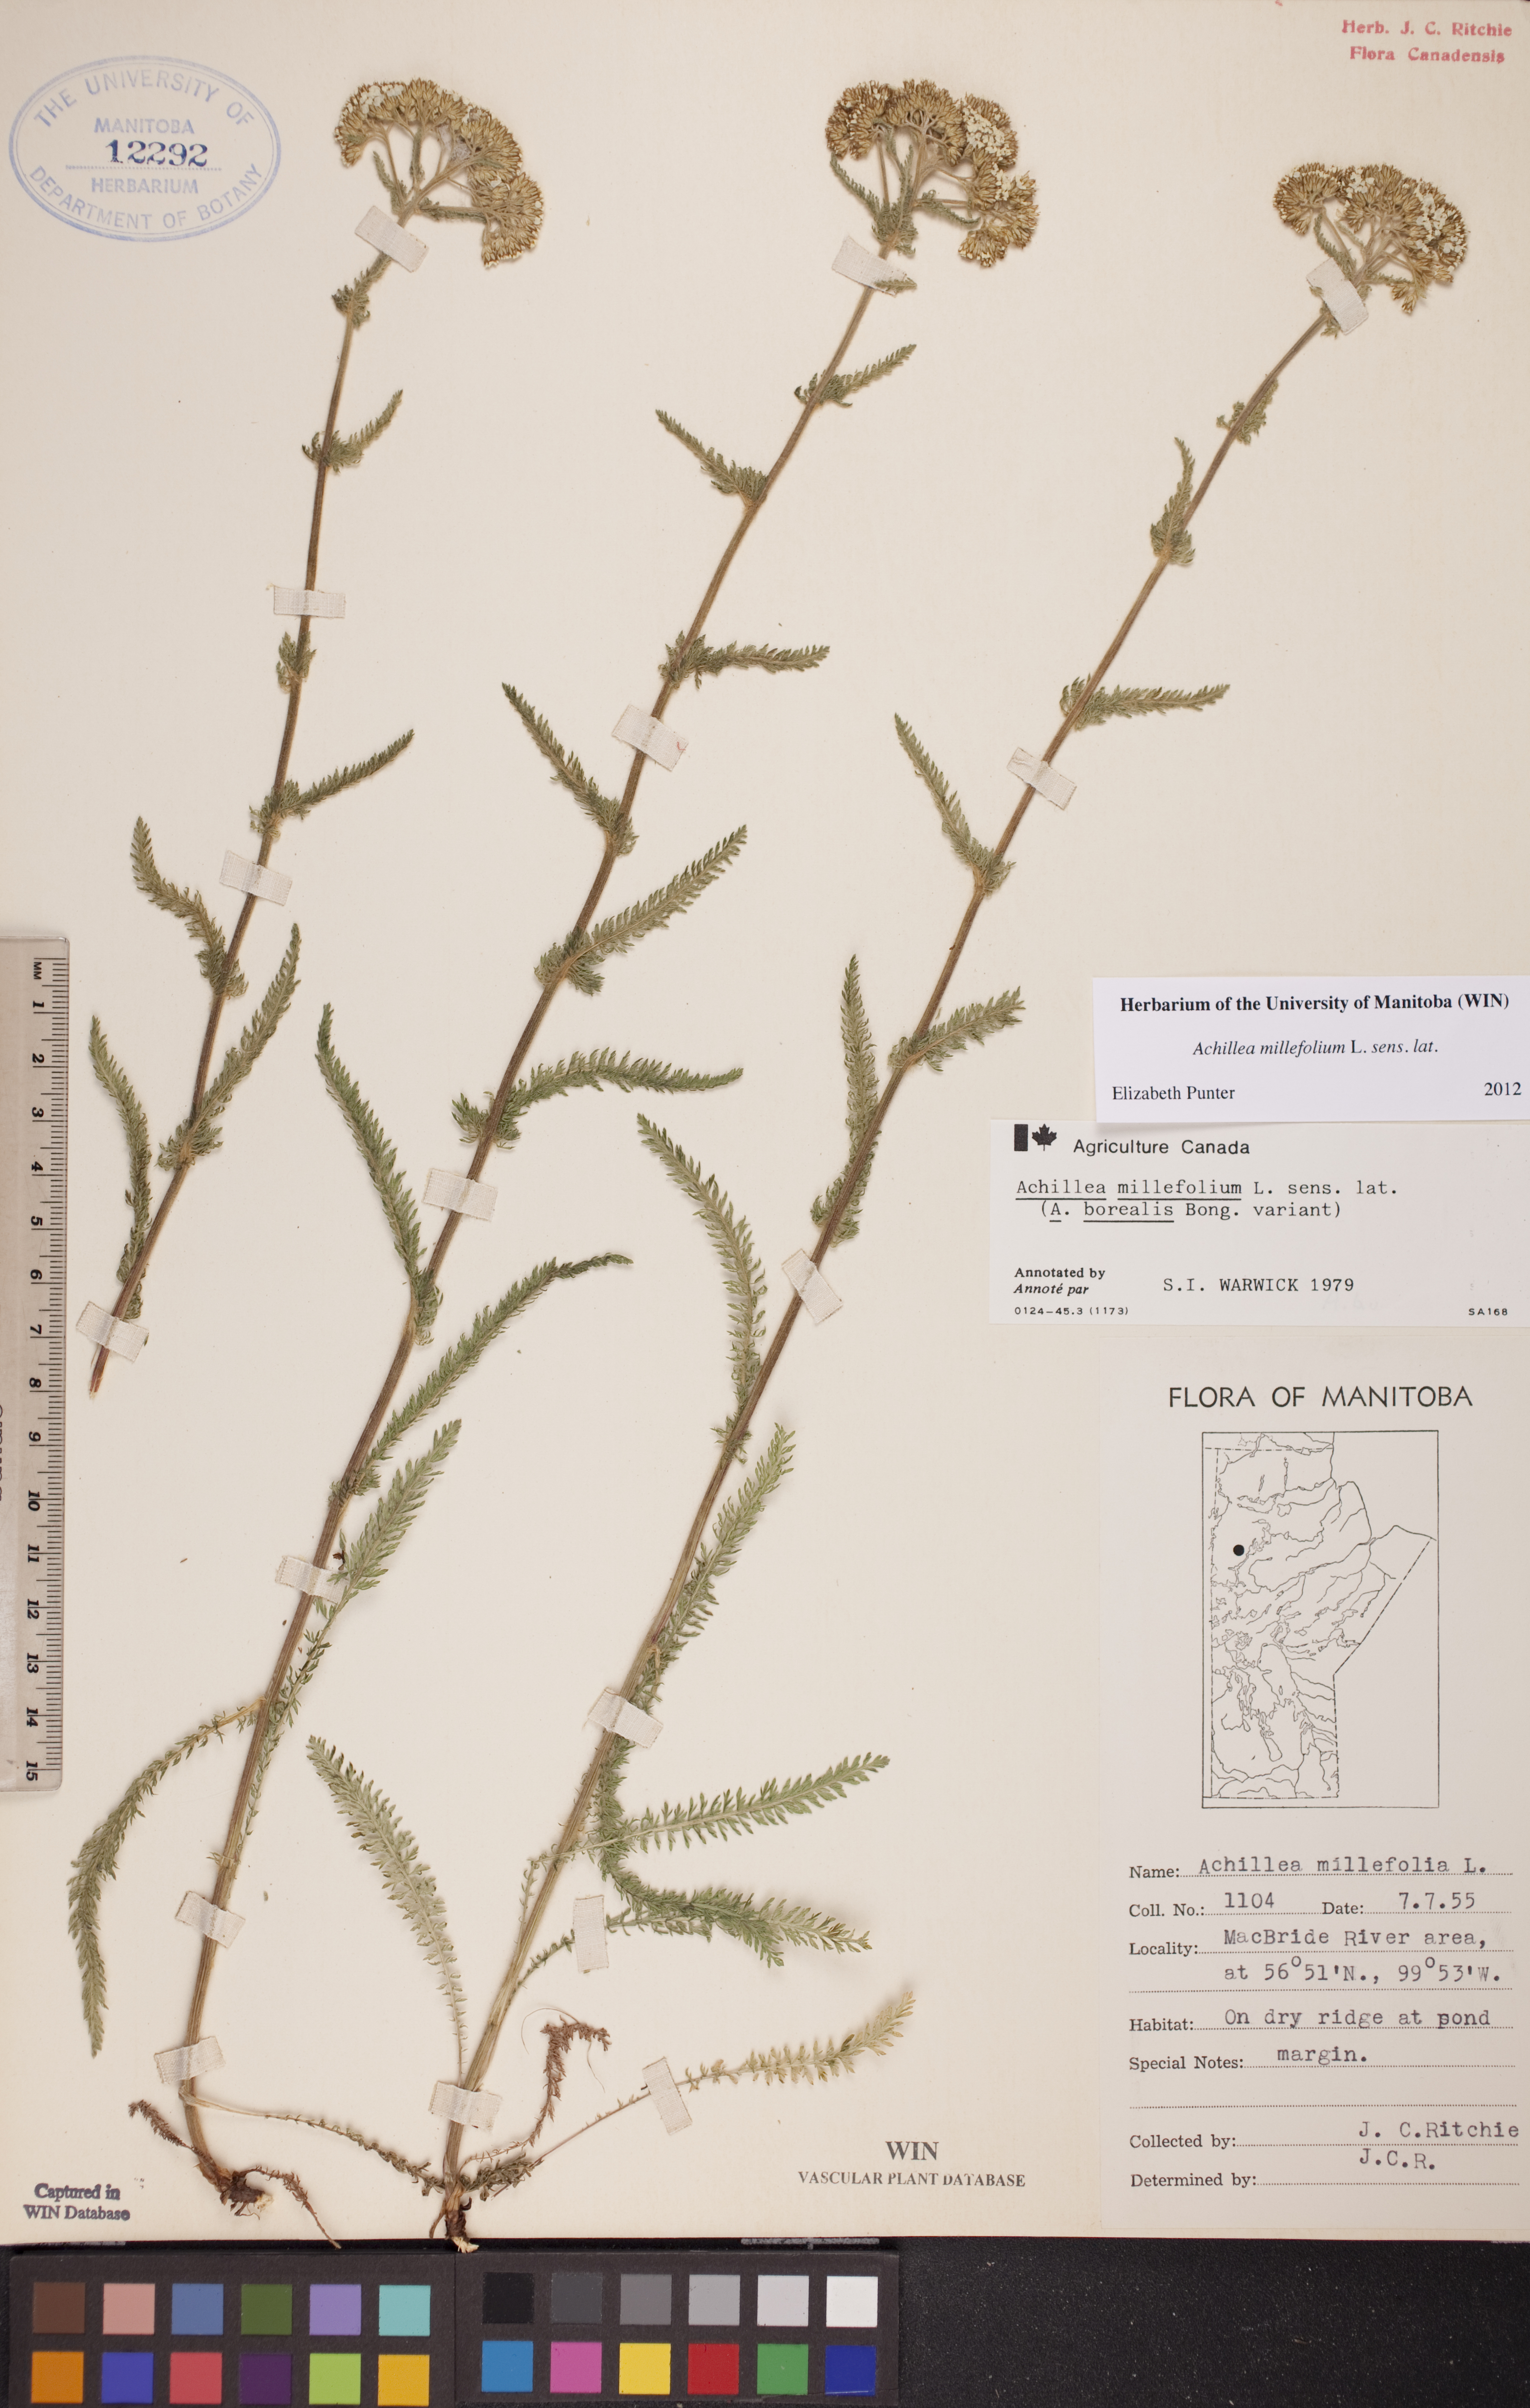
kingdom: Plantae
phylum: Tracheophyta
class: Magnoliopsida
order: Asterales
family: Asteraceae
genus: Achillea
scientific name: Achillea millefolium
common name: Yarrow
